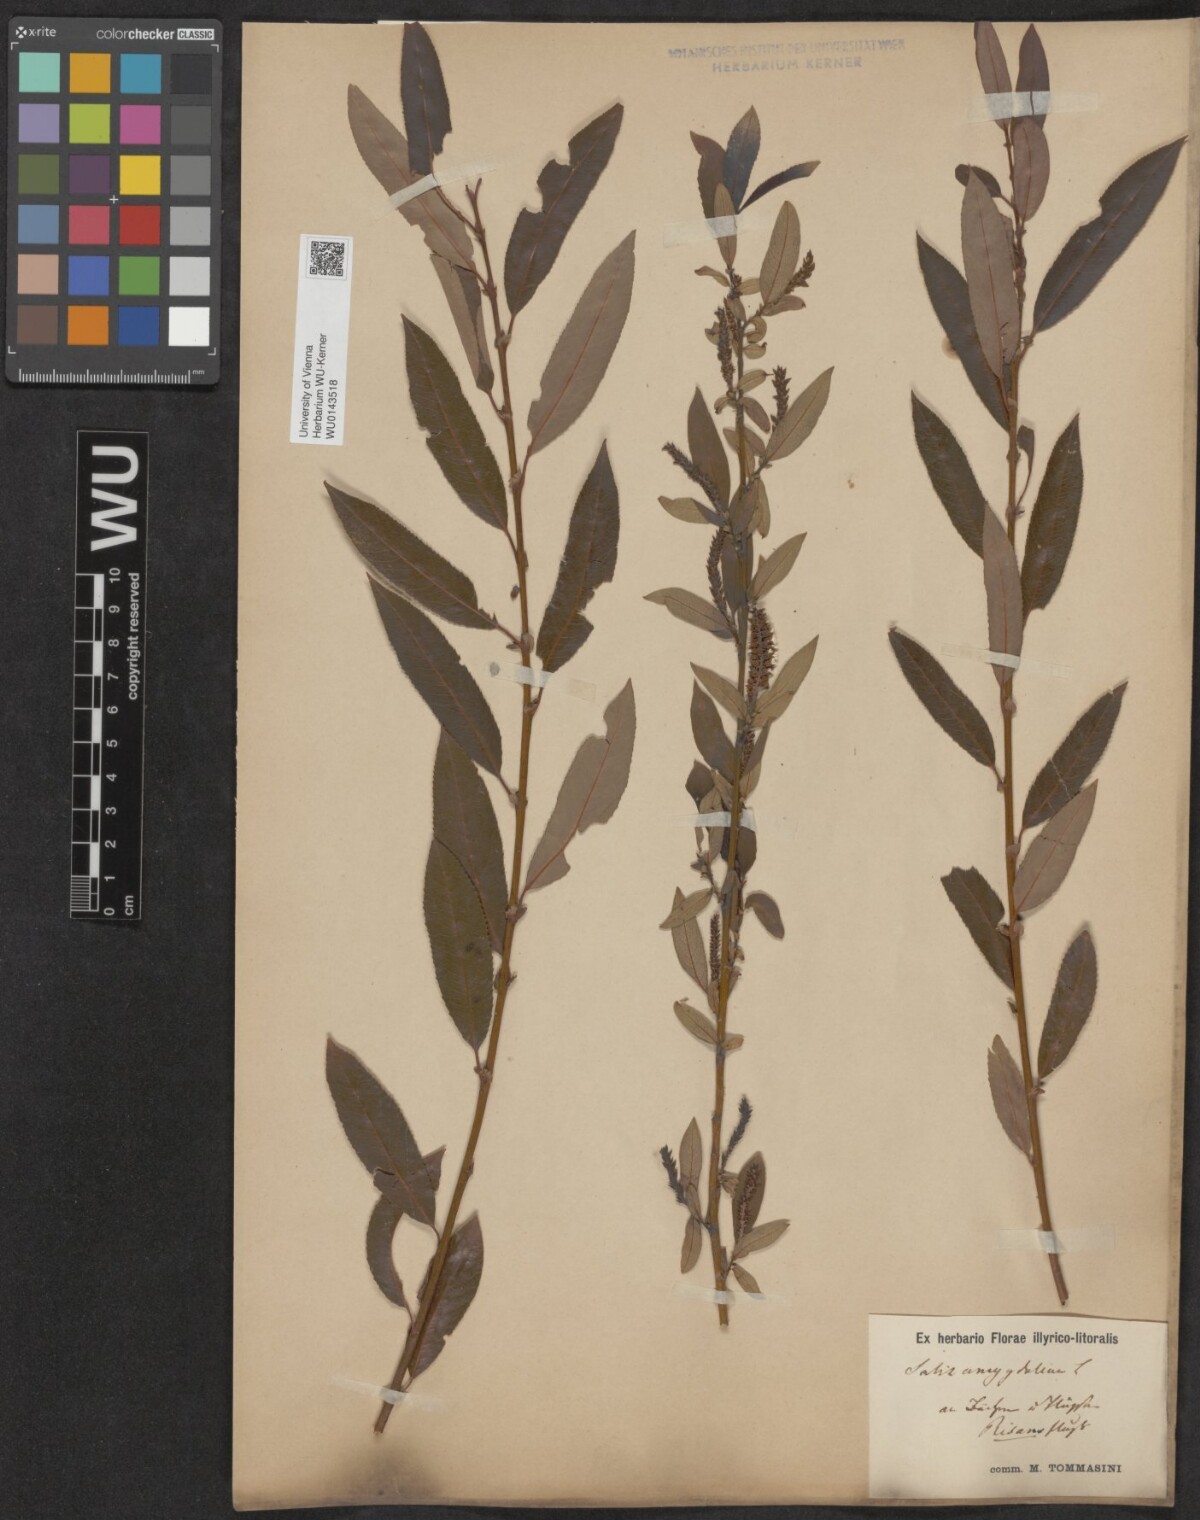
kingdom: Plantae
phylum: Tracheophyta
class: Magnoliopsida
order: Malpighiales
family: Salicaceae
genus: Salix
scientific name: Salix triandra
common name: Almond willow
